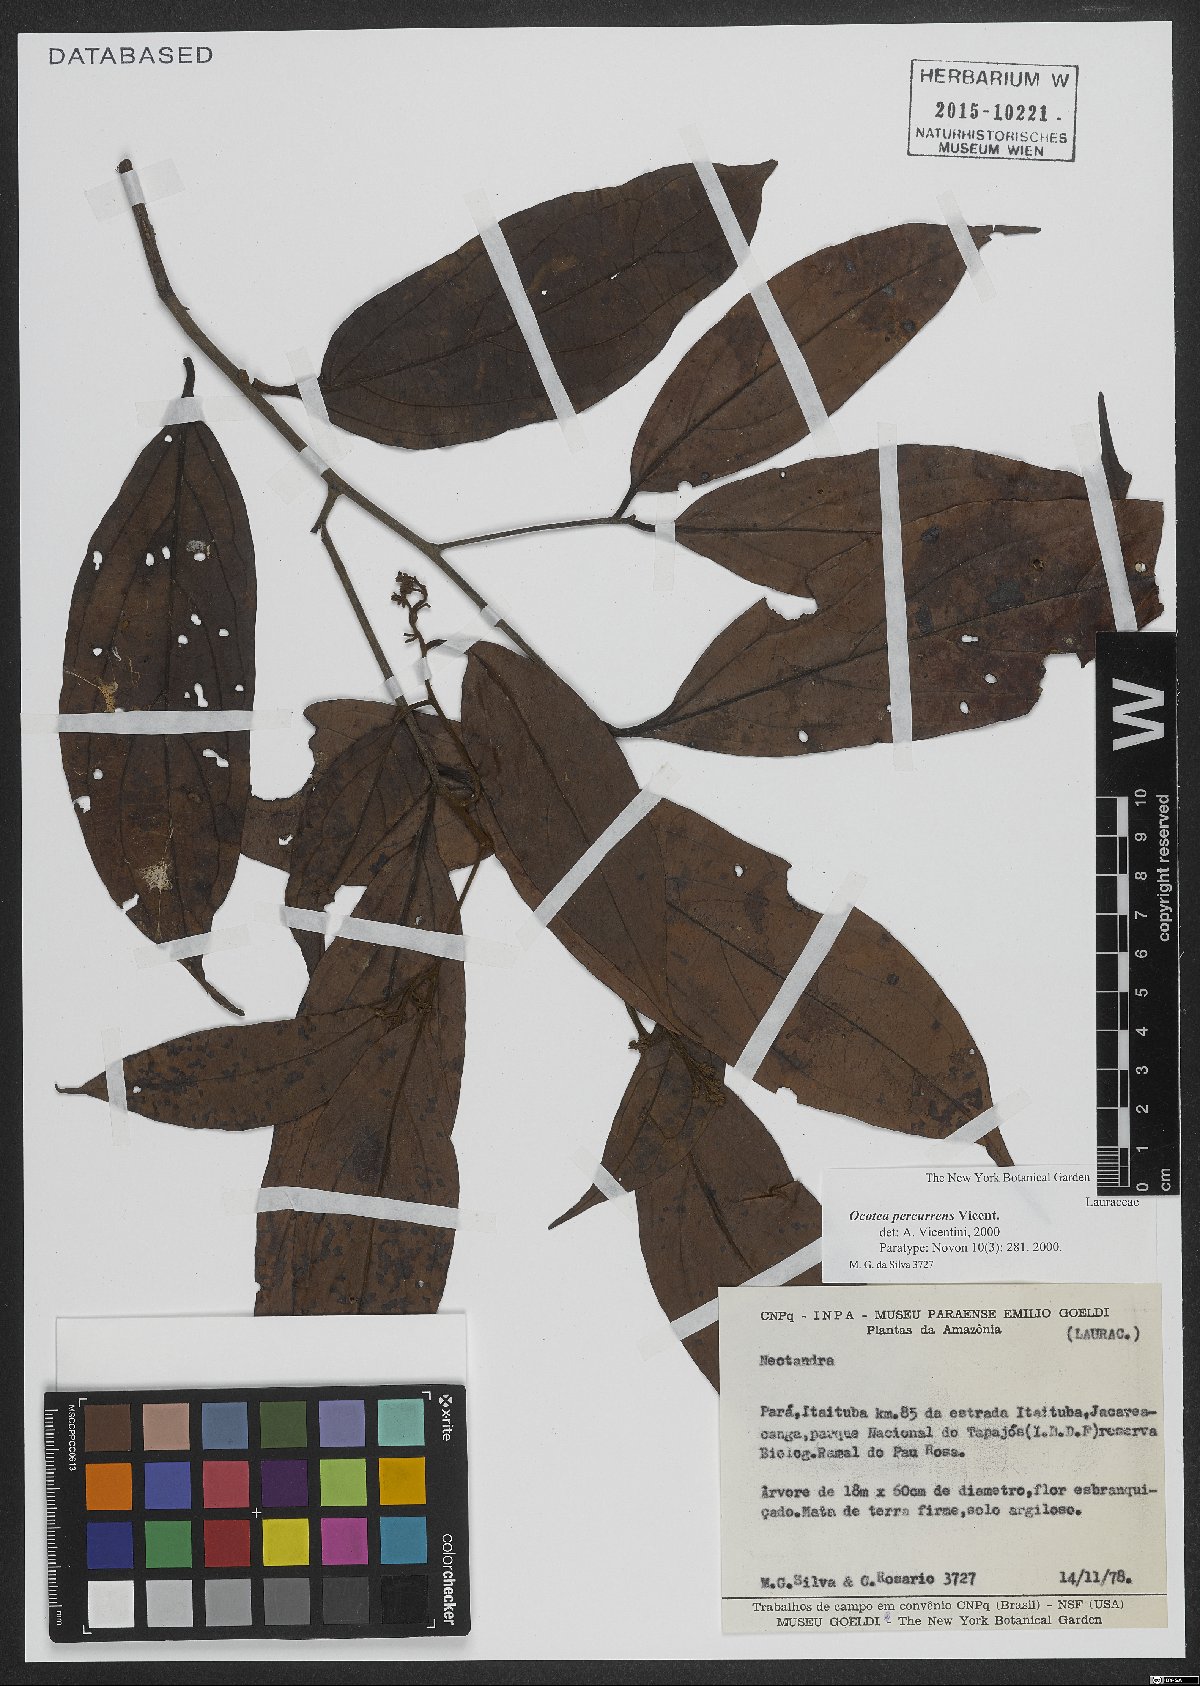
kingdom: Plantae
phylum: Tracheophyta
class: Magnoliopsida
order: Laurales
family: Lauraceae
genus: Ocotea
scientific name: Ocotea percurrens
